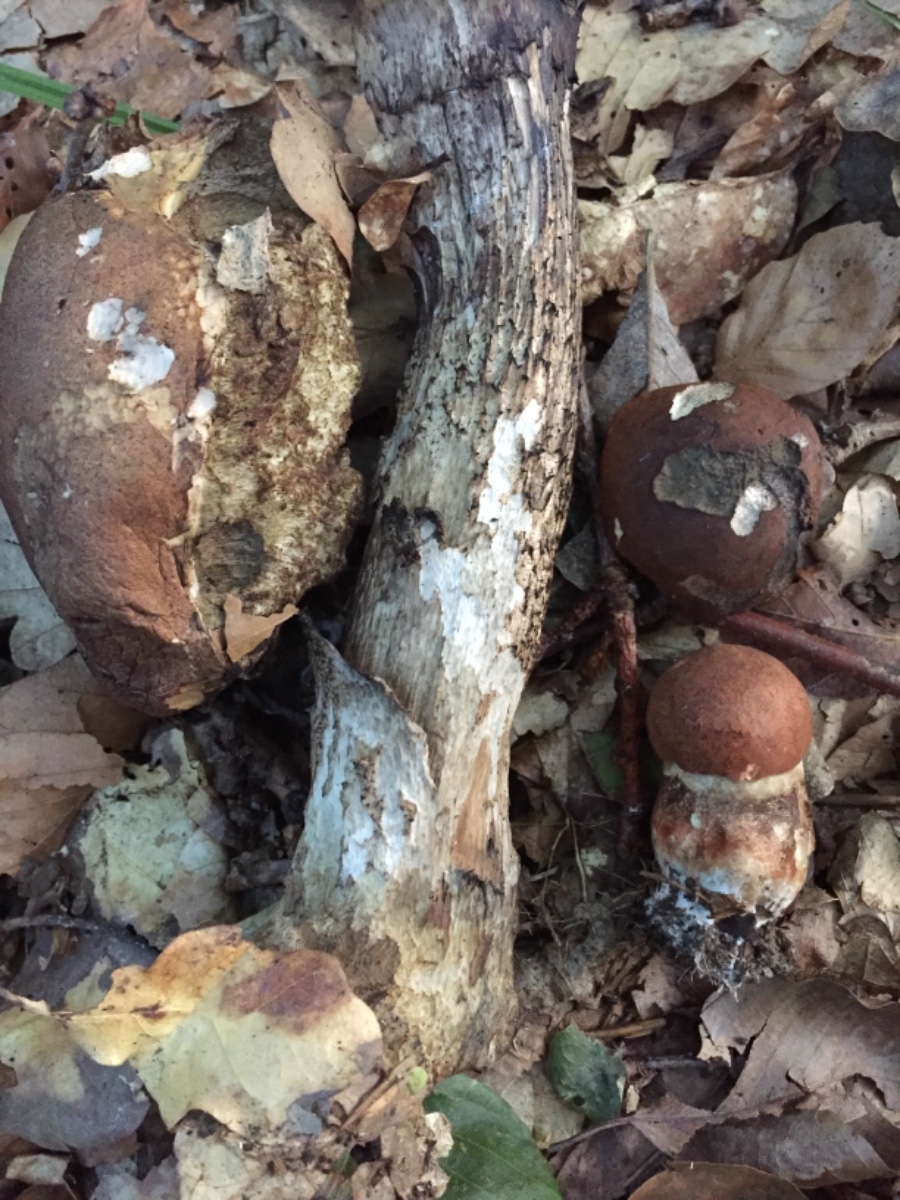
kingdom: Fungi
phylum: Basidiomycota
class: Agaricomycetes
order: Boletales
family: Boletaceae
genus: Leccinum
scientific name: Leccinum aurantiacum
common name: rustrød skælrørhat
